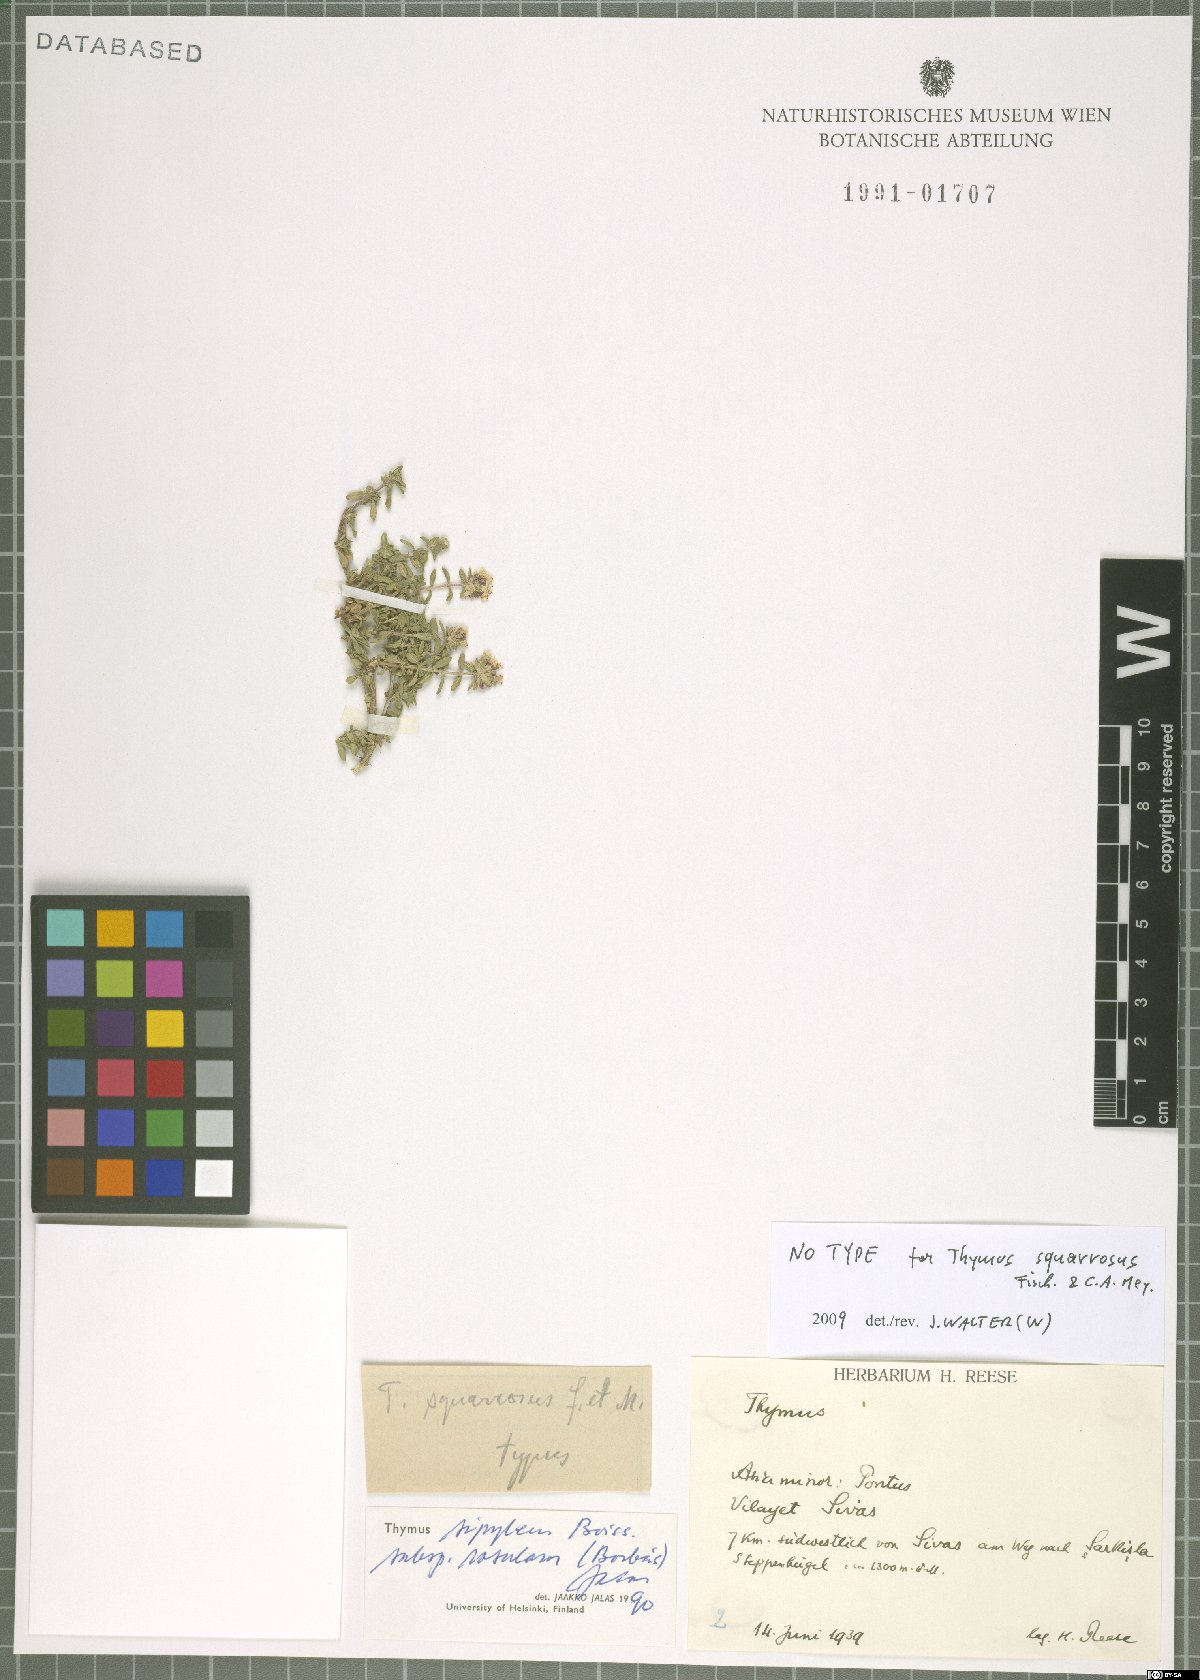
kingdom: Plantae
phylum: Tracheophyta
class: Magnoliopsida
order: Lamiales
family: Lamiaceae
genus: Thymus
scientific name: Thymus sipyleus
